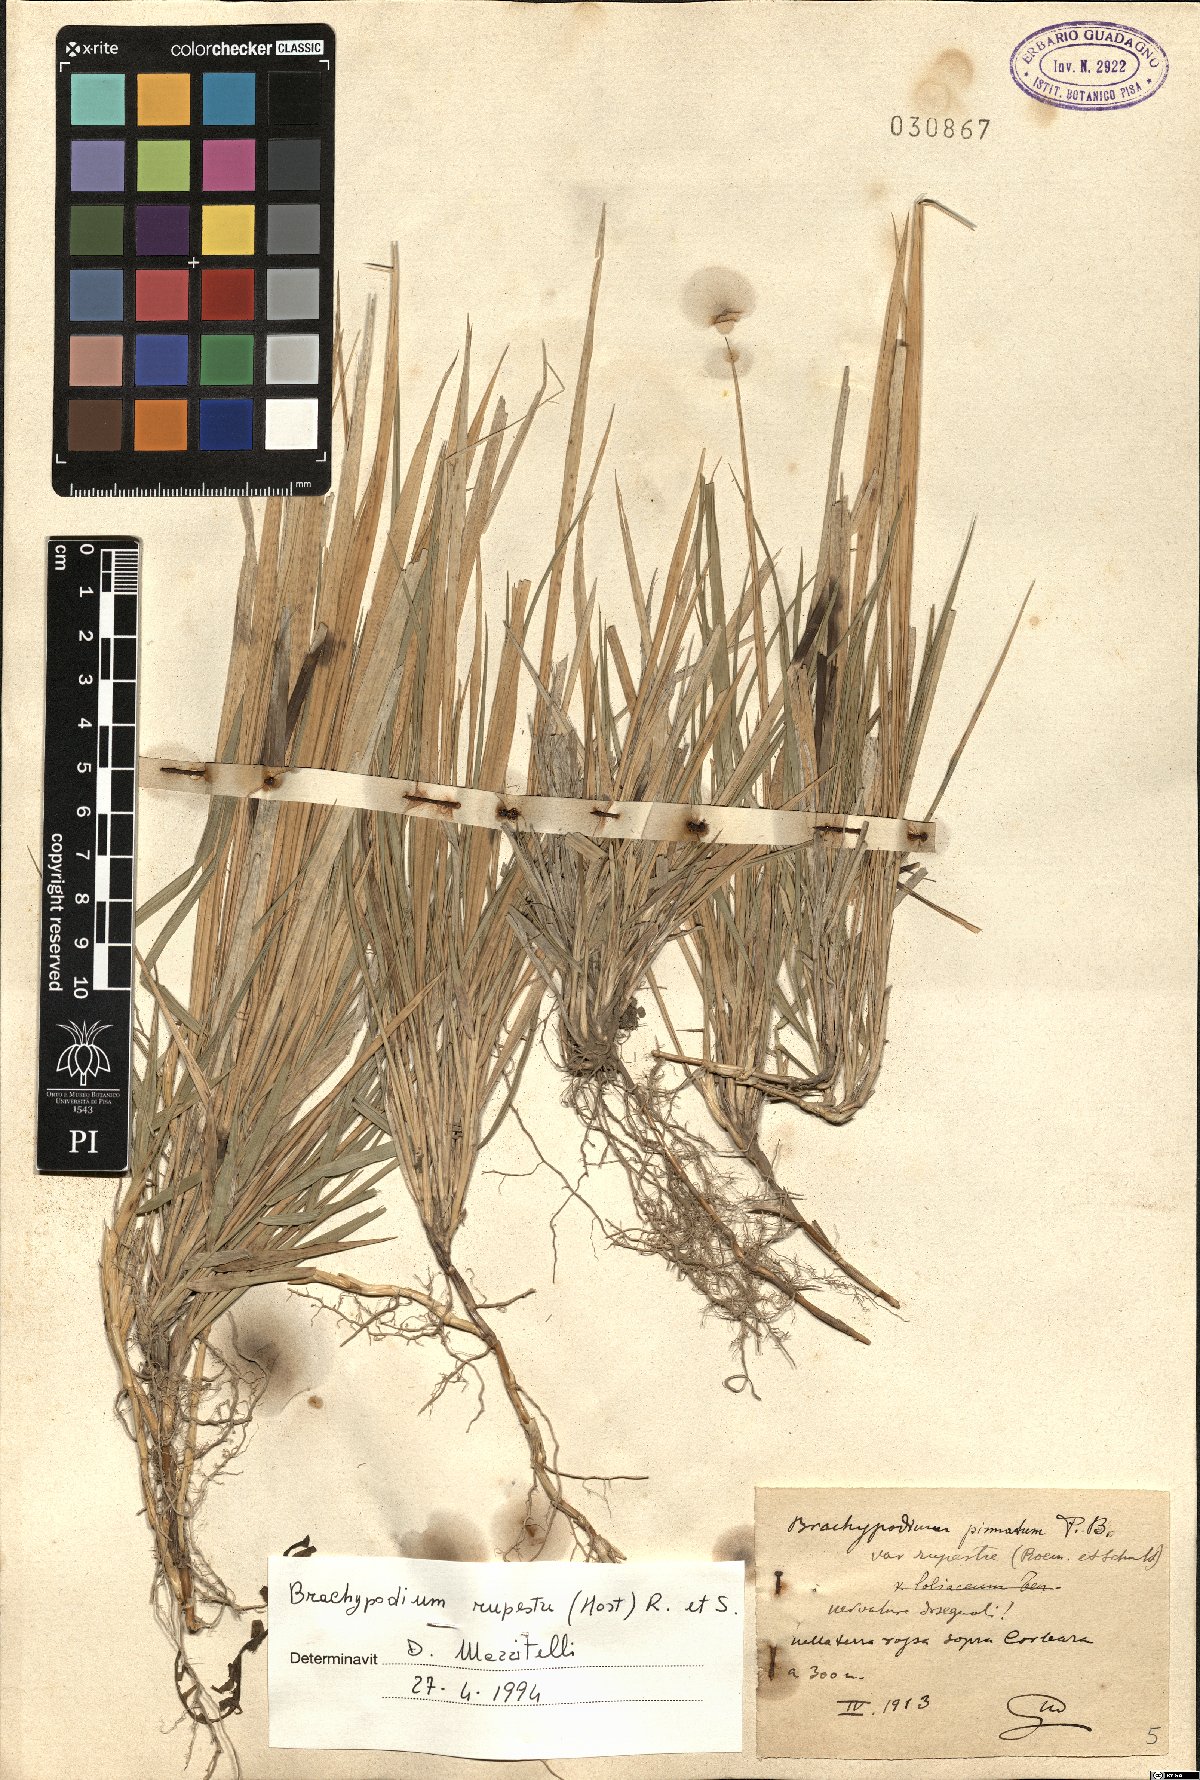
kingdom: Plantae
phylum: Tracheophyta
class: Liliopsida
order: Poales
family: Poaceae
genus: Brachypodium
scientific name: Brachypodium pinnatum
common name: Tor grass
